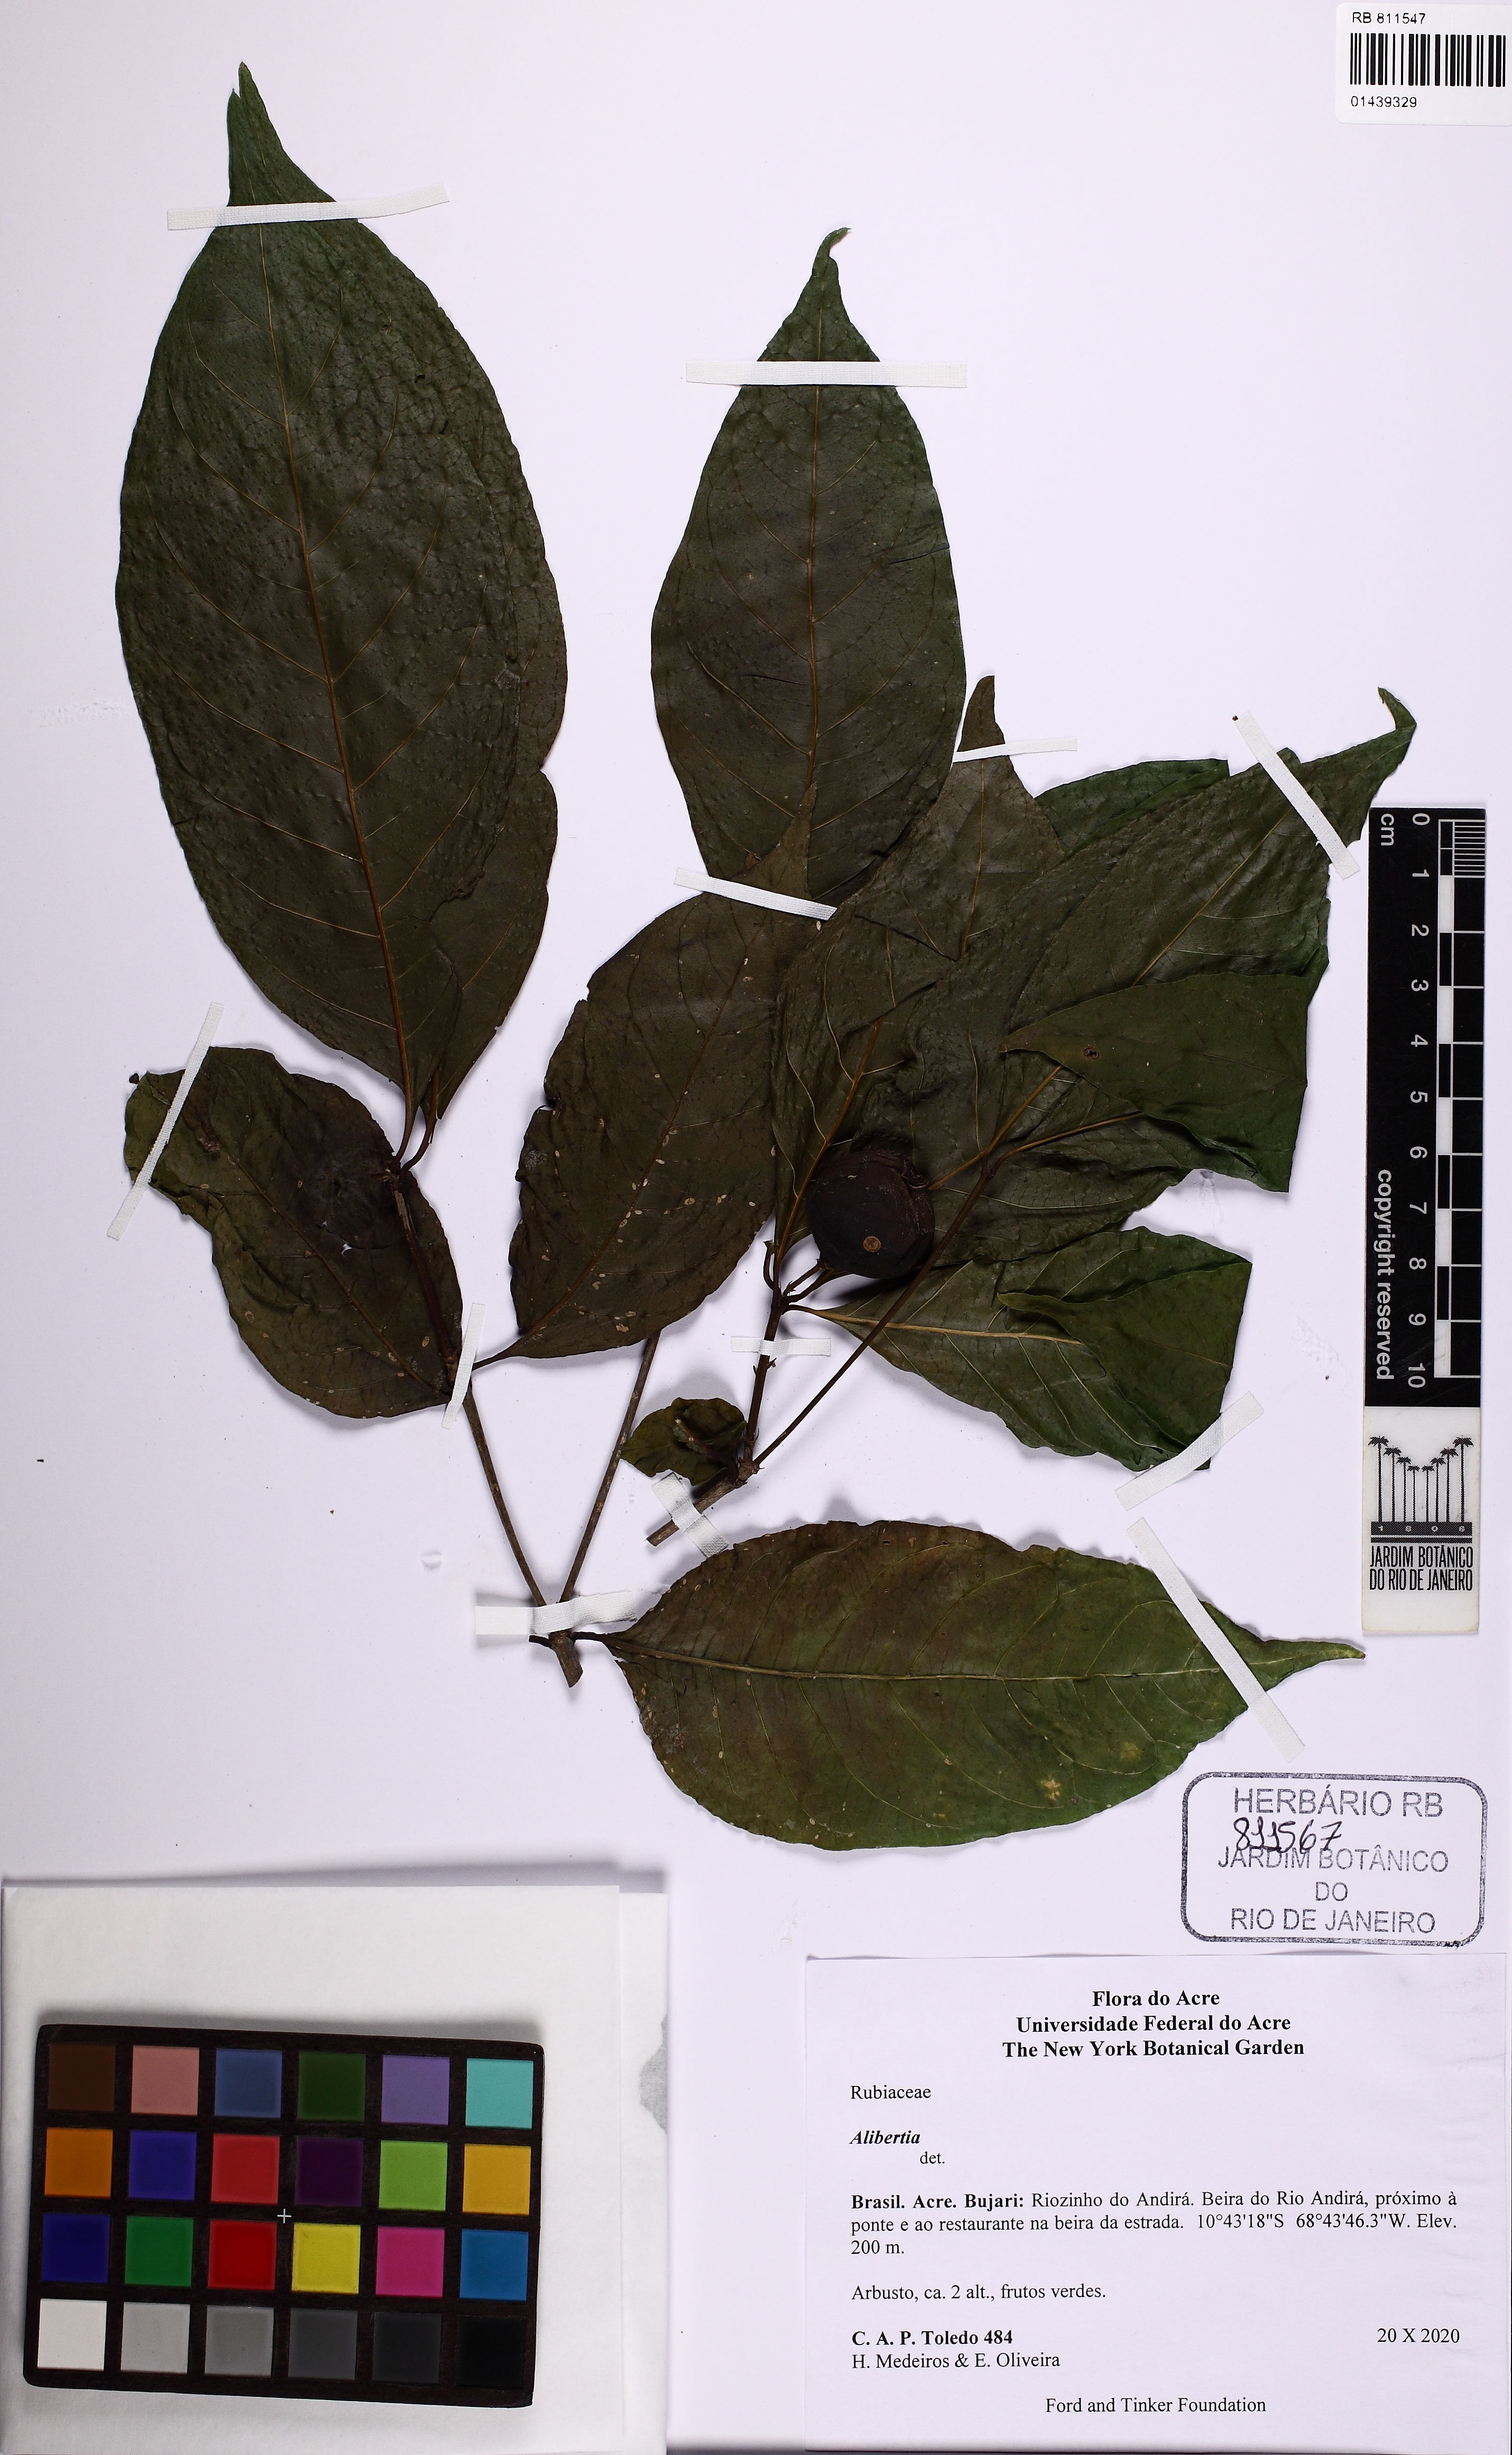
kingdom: Plantae
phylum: Tracheophyta
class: Magnoliopsida
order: Gentianales
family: Rubiaceae
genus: Alibertia
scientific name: Alibertia
